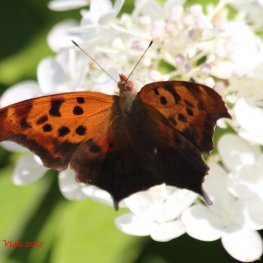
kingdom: Animalia
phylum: Arthropoda
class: Insecta
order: Lepidoptera
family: Nymphalidae
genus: Polygonia
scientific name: Polygonia interrogationis
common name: Question Mark
